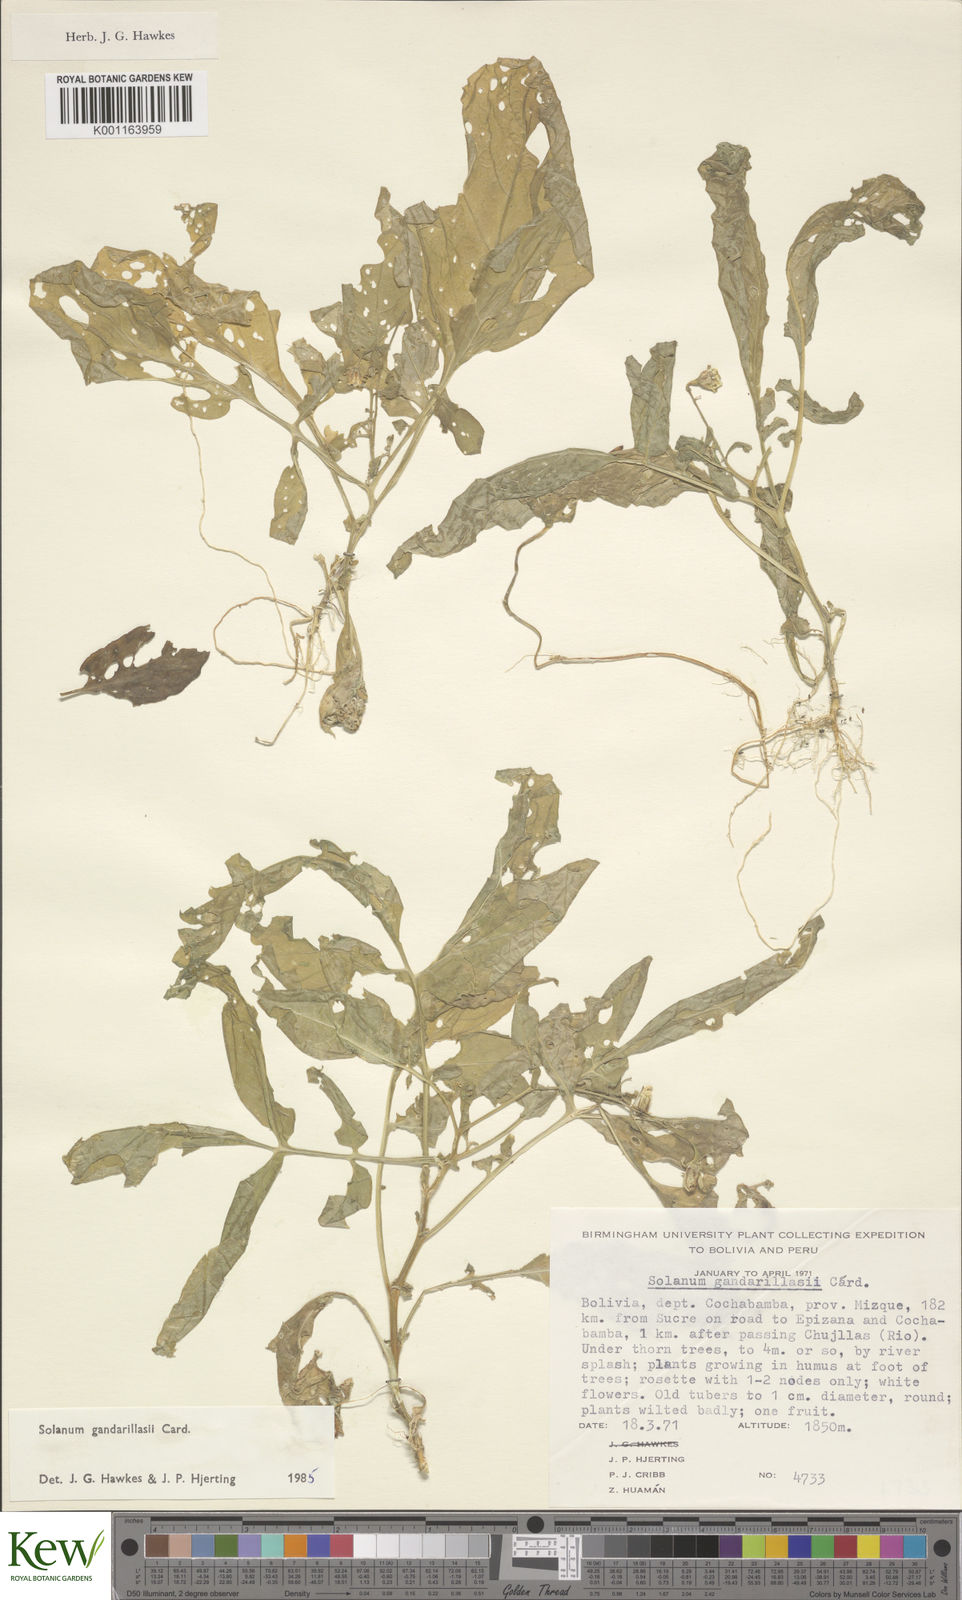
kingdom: Plantae
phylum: Tracheophyta
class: Magnoliopsida
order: Solanales
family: Solanaceae
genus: Solanum
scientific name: Solanum
